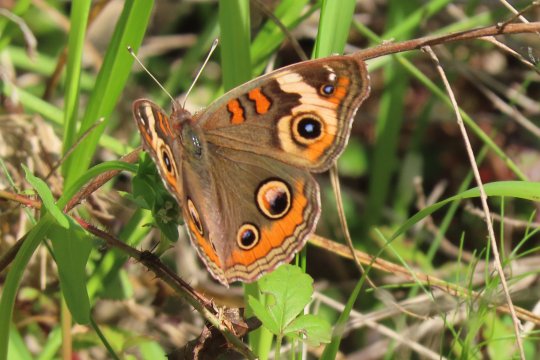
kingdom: Animalia
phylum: Arthropoda
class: Insecta
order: Lepidoptera
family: Nymphalidae
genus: Junonia
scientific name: Junonia coenia
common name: Common Buckeye
